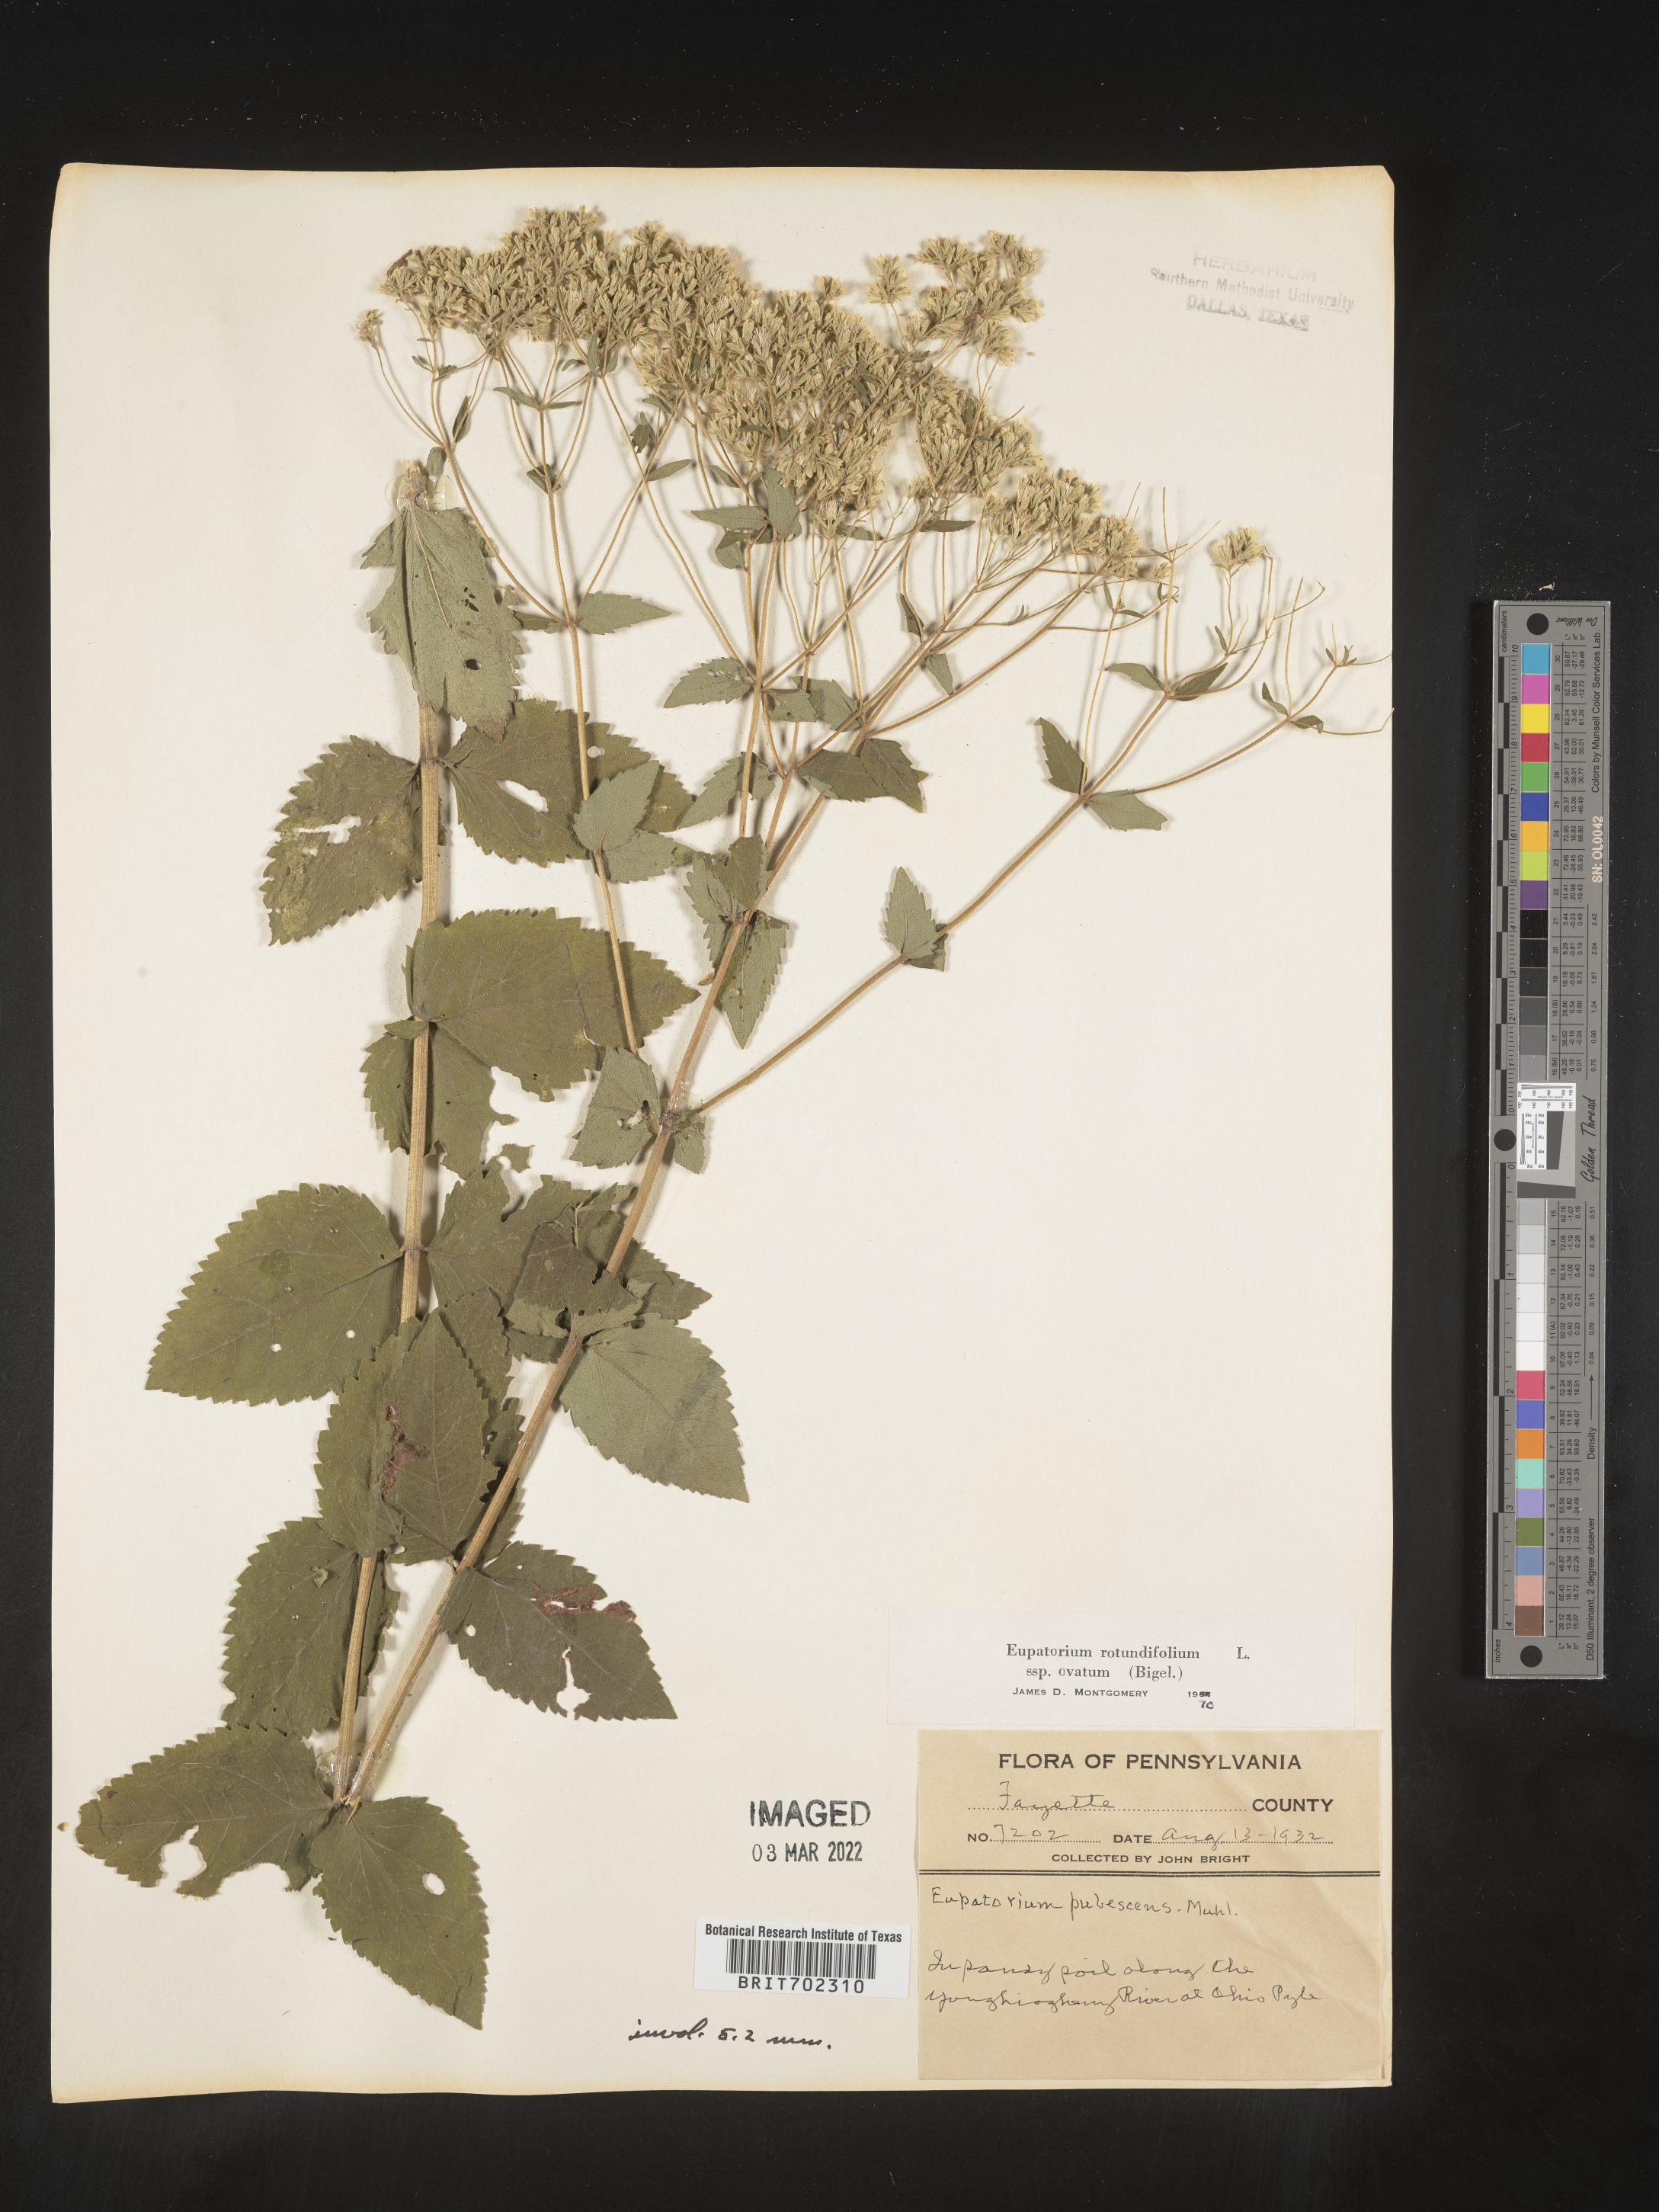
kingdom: Plantae
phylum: Tracheophyta
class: Magnoliopsida
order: Asterales
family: Asteraceae
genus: Eupatorium
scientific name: Eupatorium rotundifolium
